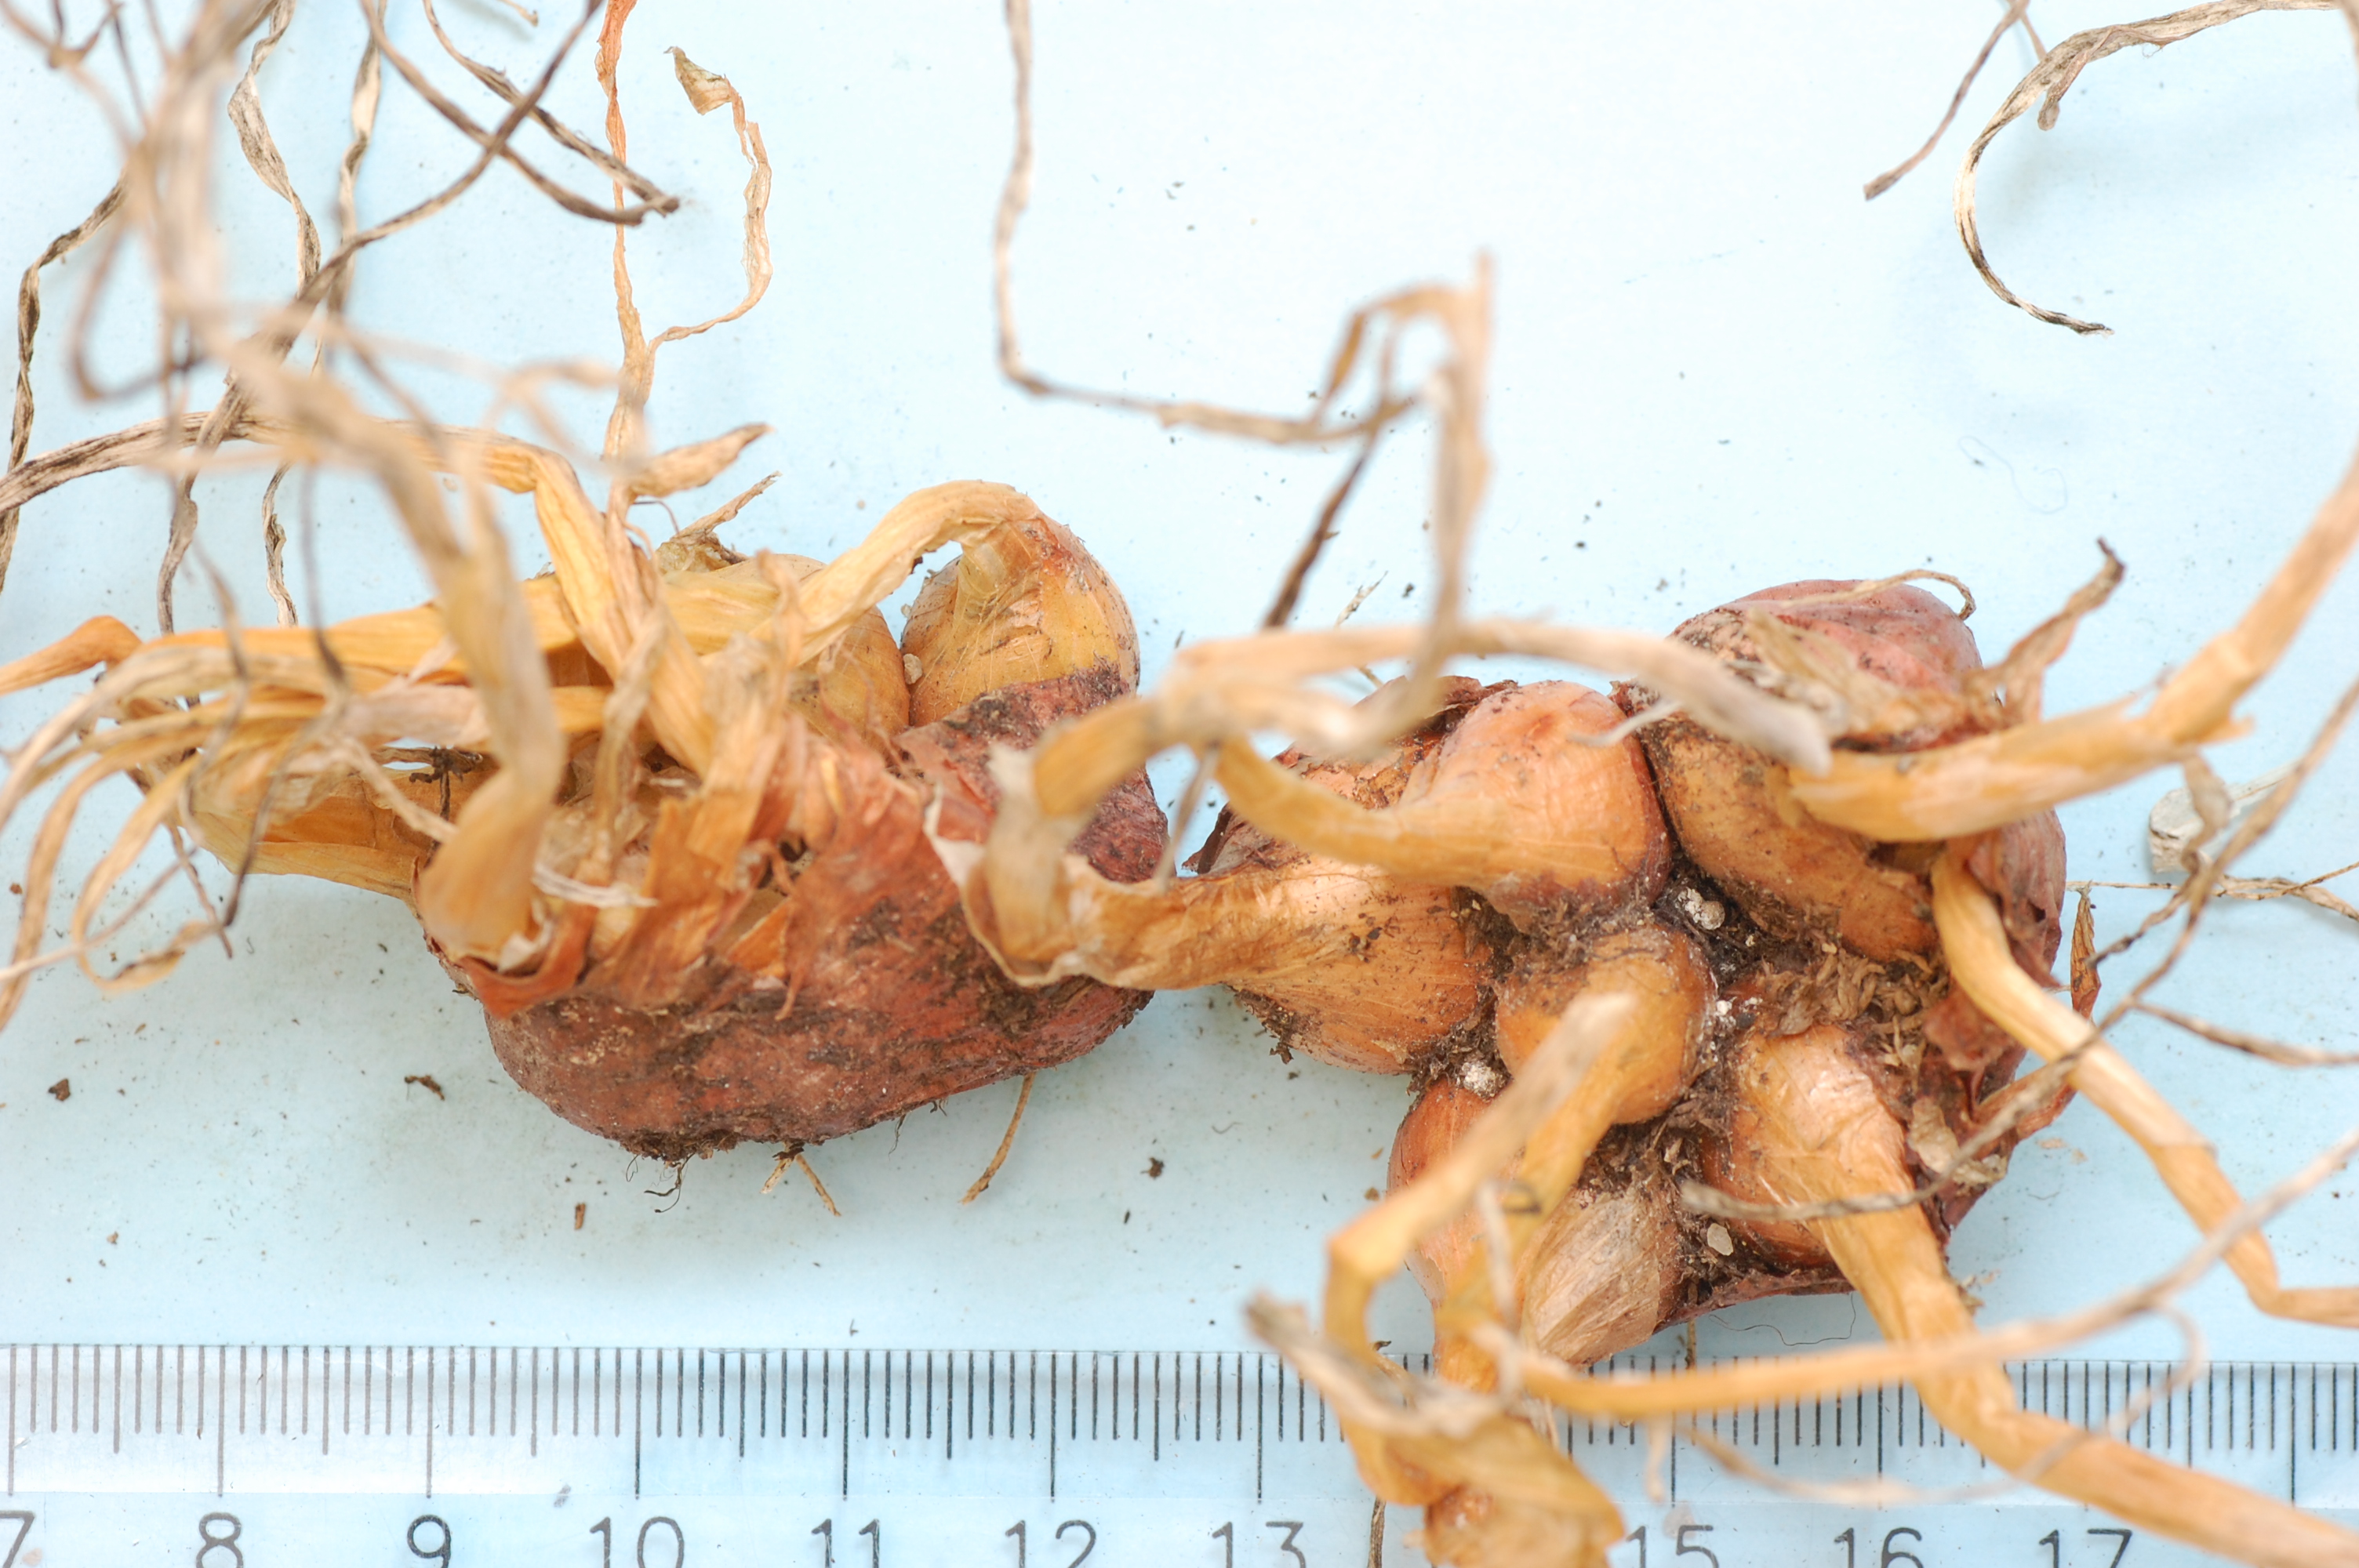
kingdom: Plantae
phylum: Tracheophyta
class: Liliopsida
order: Asparagales
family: Amaryllidaceae
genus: Allium
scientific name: Allium cepa
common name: Onion
